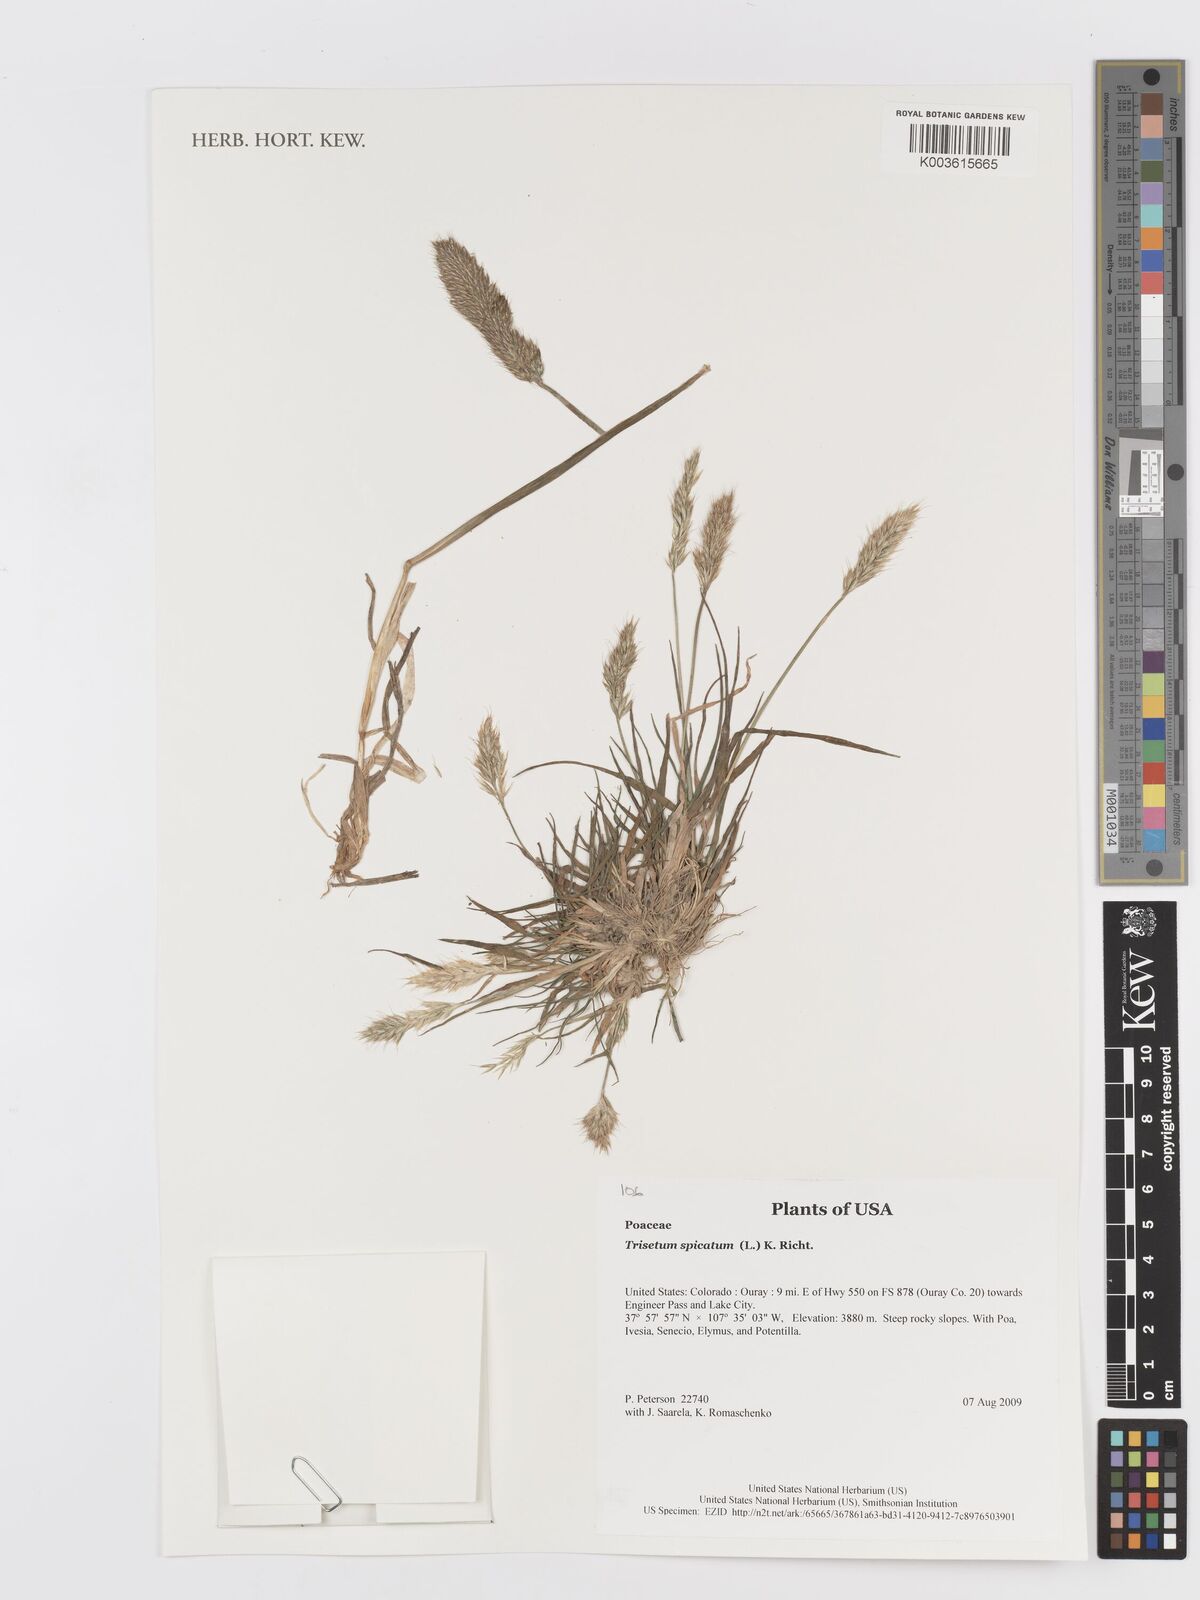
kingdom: Plantae
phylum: Tracheophyta
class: Liliopsida
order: Poales
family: Poaceae
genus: Koeleria
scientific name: Koeleria spicata
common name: Mountain trisetum
